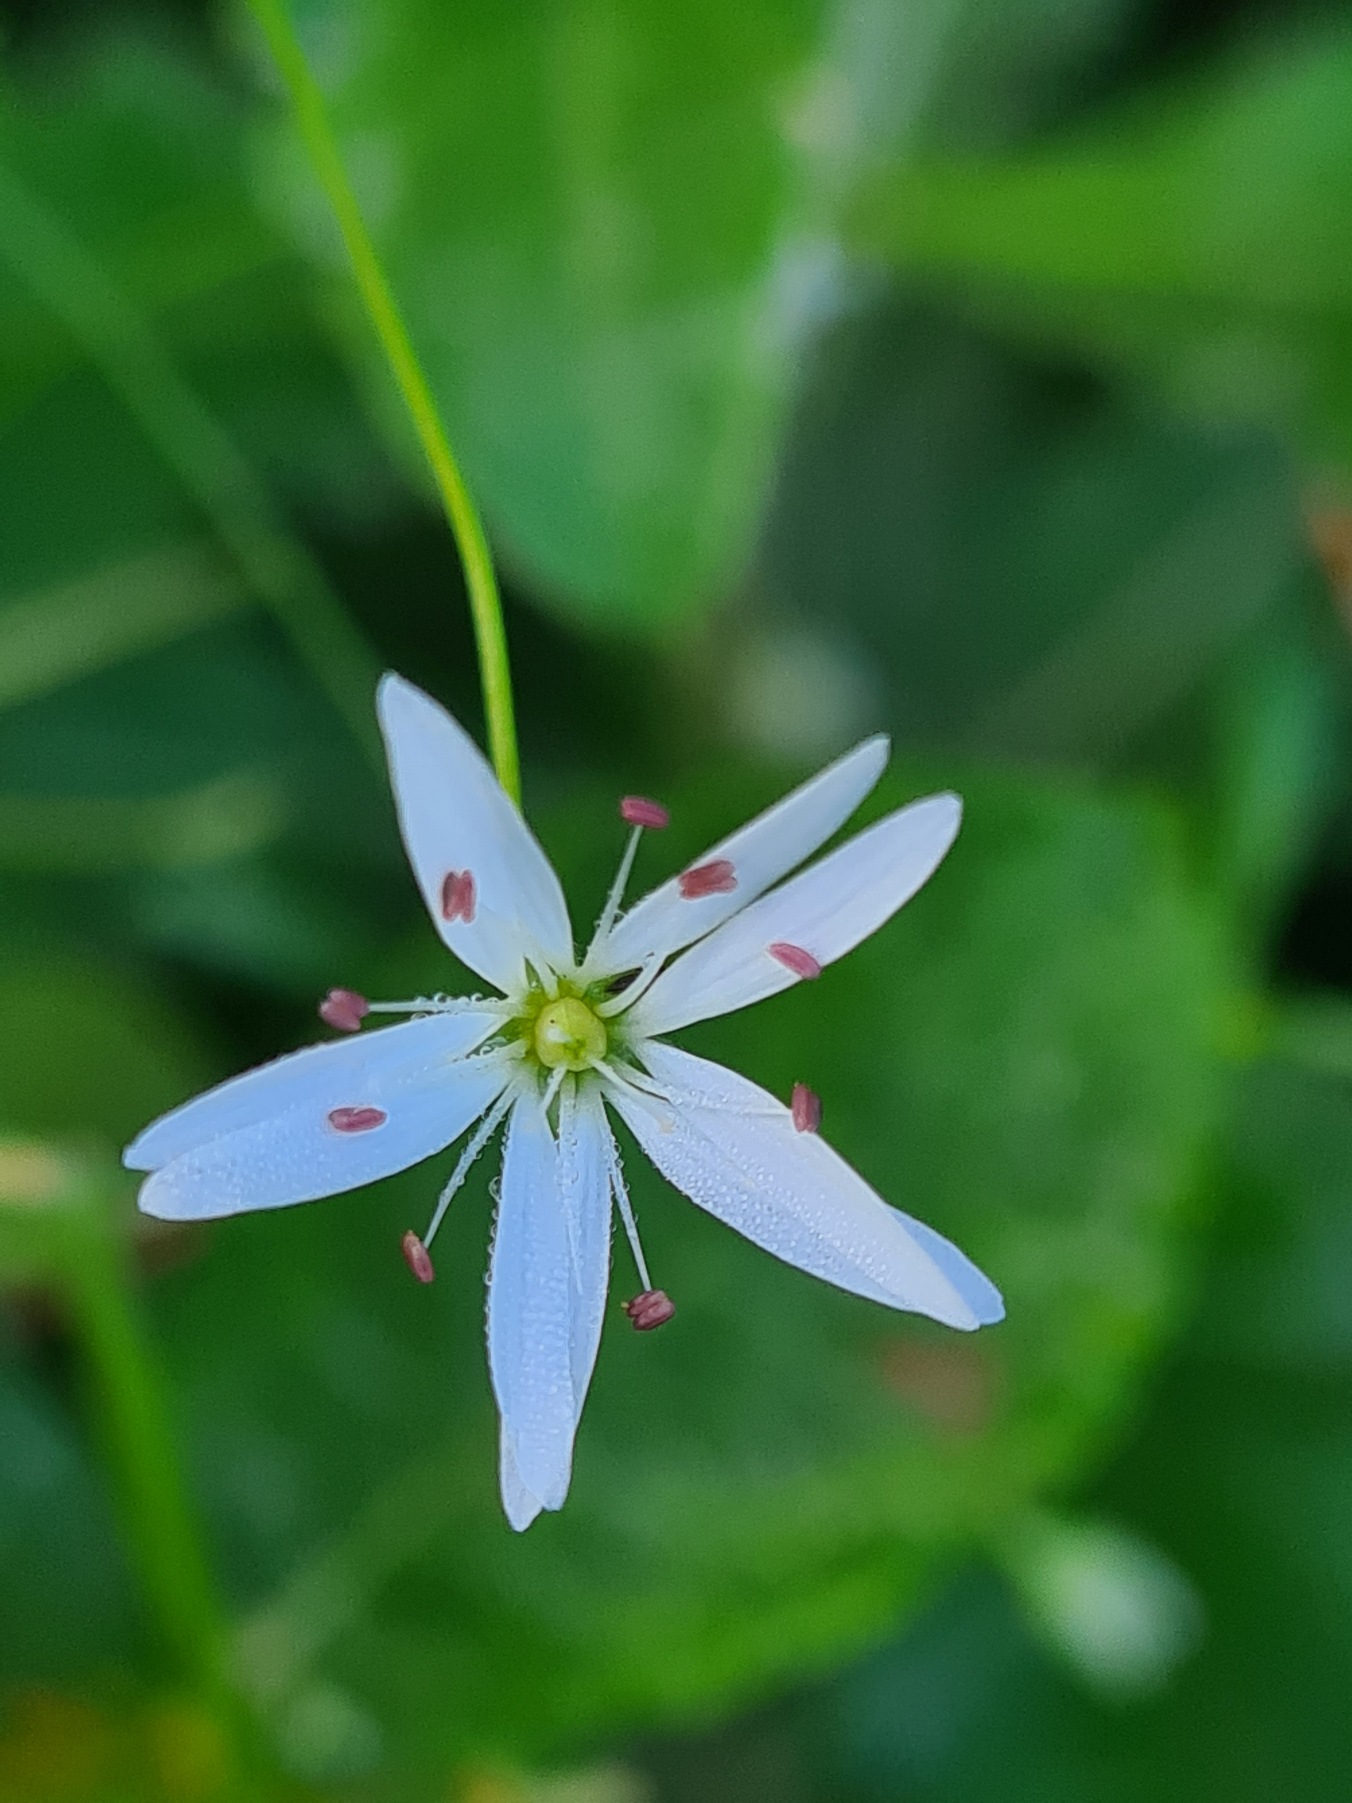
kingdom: Plantae
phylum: Tracheophyta
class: Magnoliopsida
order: Caryophyllales
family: Caryophyllaceae
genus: Stellaria
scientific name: Stellaria graminea
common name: Græsbladet fladstjerne
